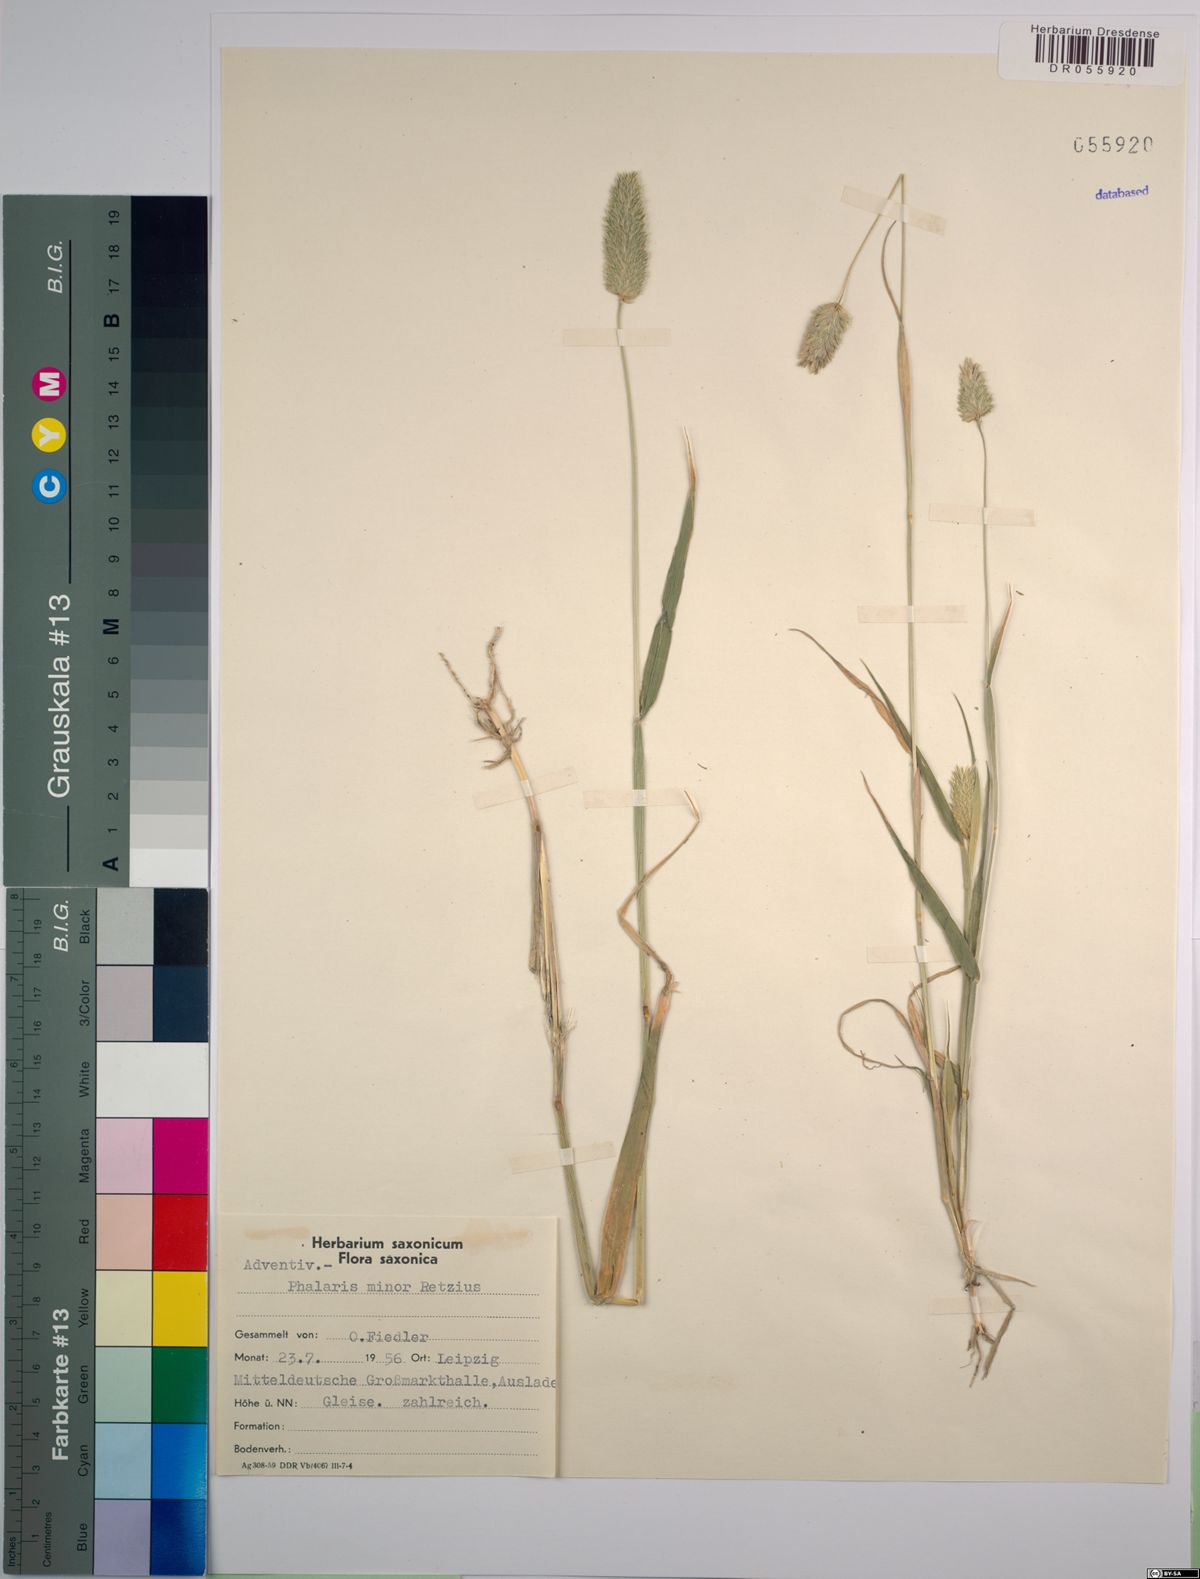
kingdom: Plantae
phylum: Tracheophyta
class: Liliopsida
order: Poales
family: Poaceae
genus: Phalaris
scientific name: Phalaris minor
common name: Littleseed canarygrass
